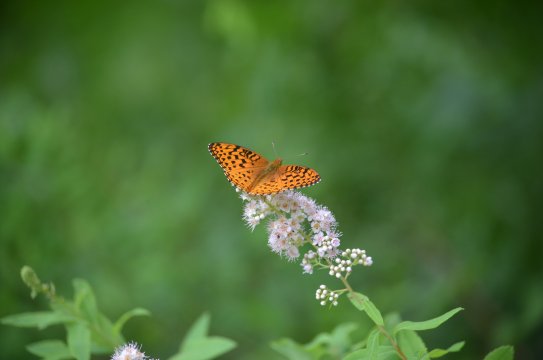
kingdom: Animalia
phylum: Arthropoda
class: Insecta
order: Lepidoptera
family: Nymphalidae
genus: Speyeria
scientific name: Speyeria aphrodite
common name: Aphrodite Fritillary
